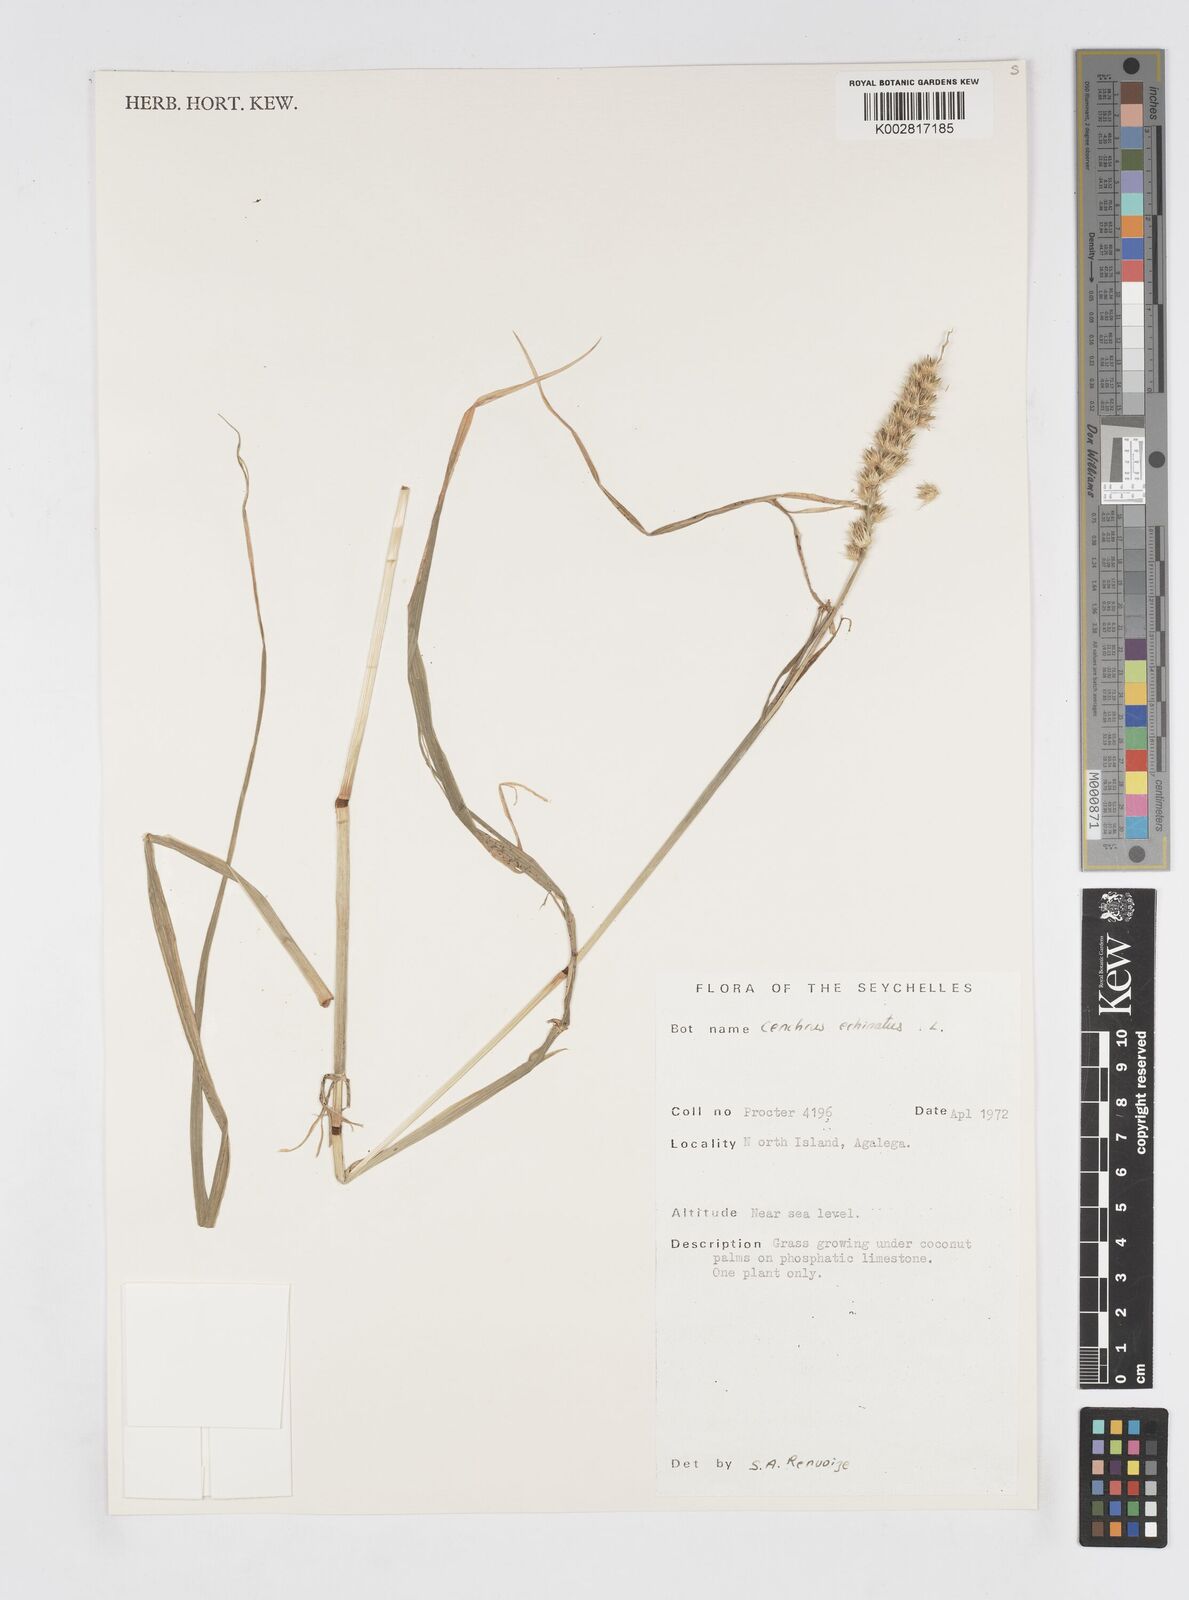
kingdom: Plantae
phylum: Tracheophyta
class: Liliopsida
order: Poales
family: Poaceae
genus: Cenchrus
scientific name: Cenchrus
